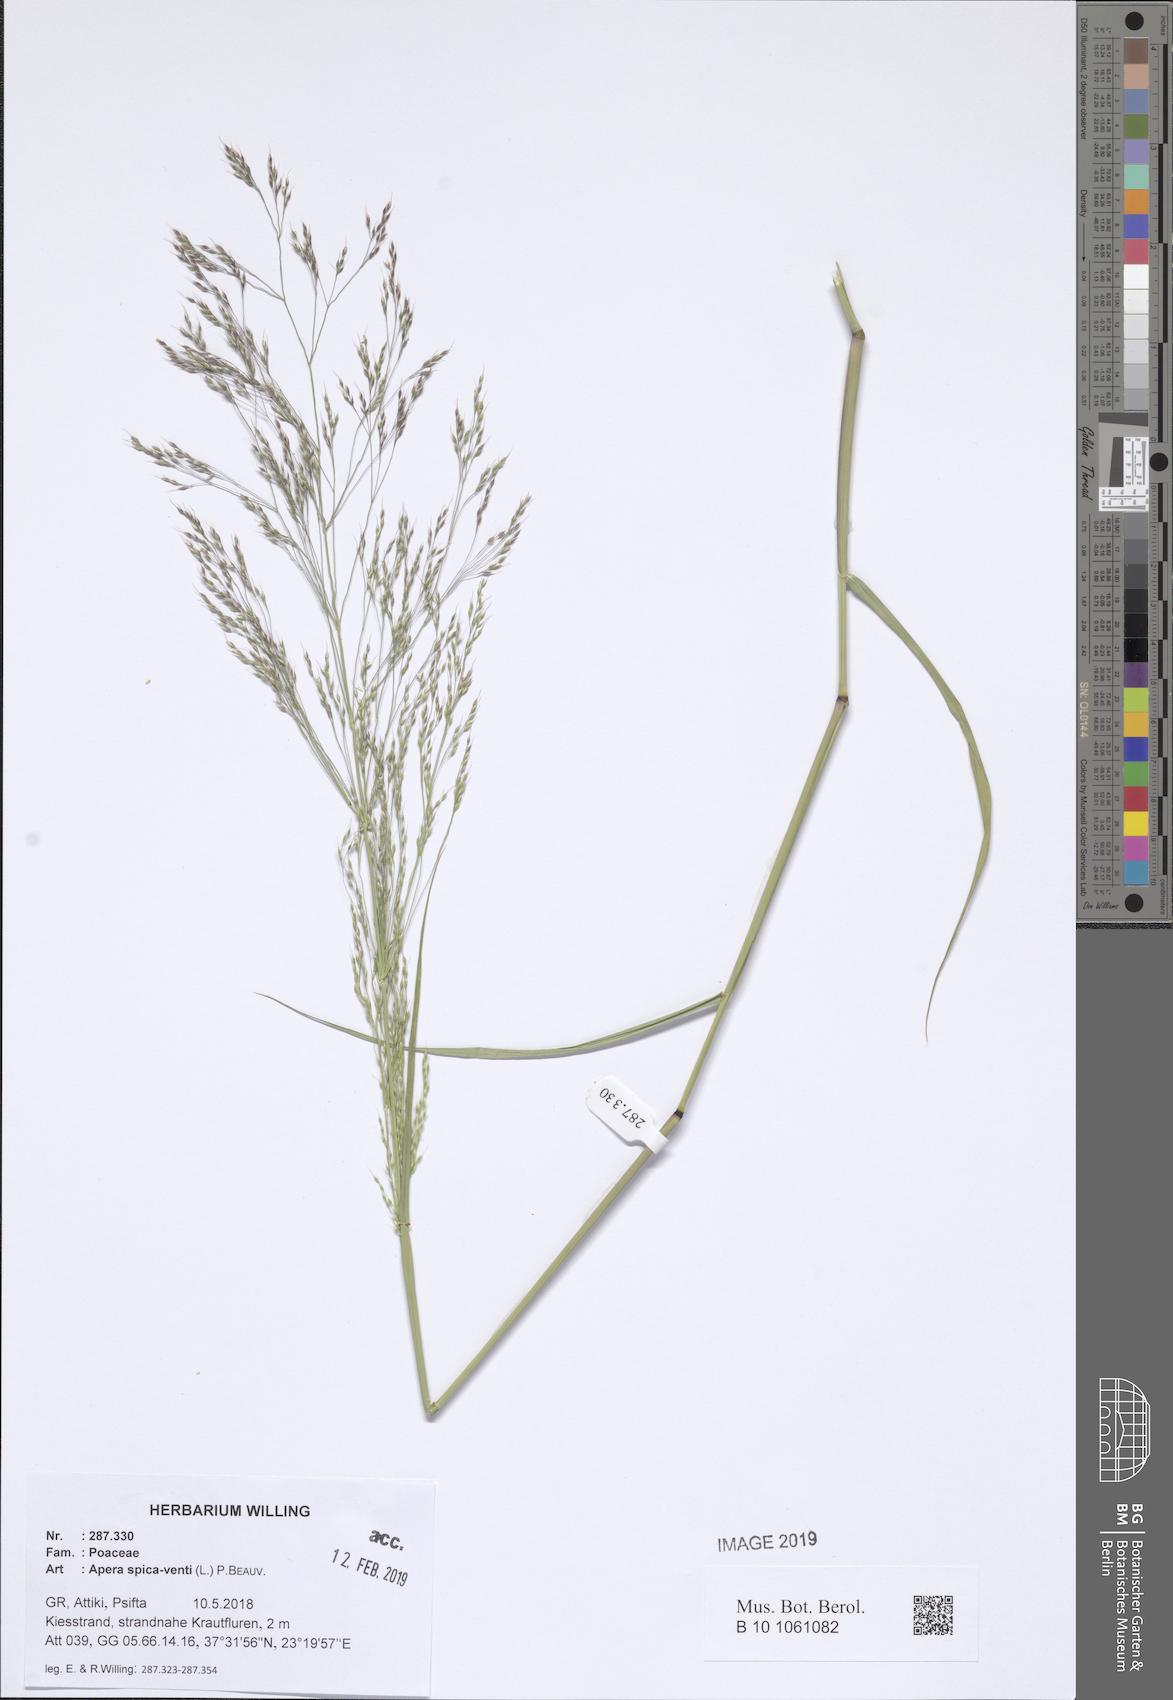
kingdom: Plantae
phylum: Tracheophyta
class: Liliopsida
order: Poales
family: Poaceae
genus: Apera
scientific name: Apera spica-venti
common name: Loose silky-bent
